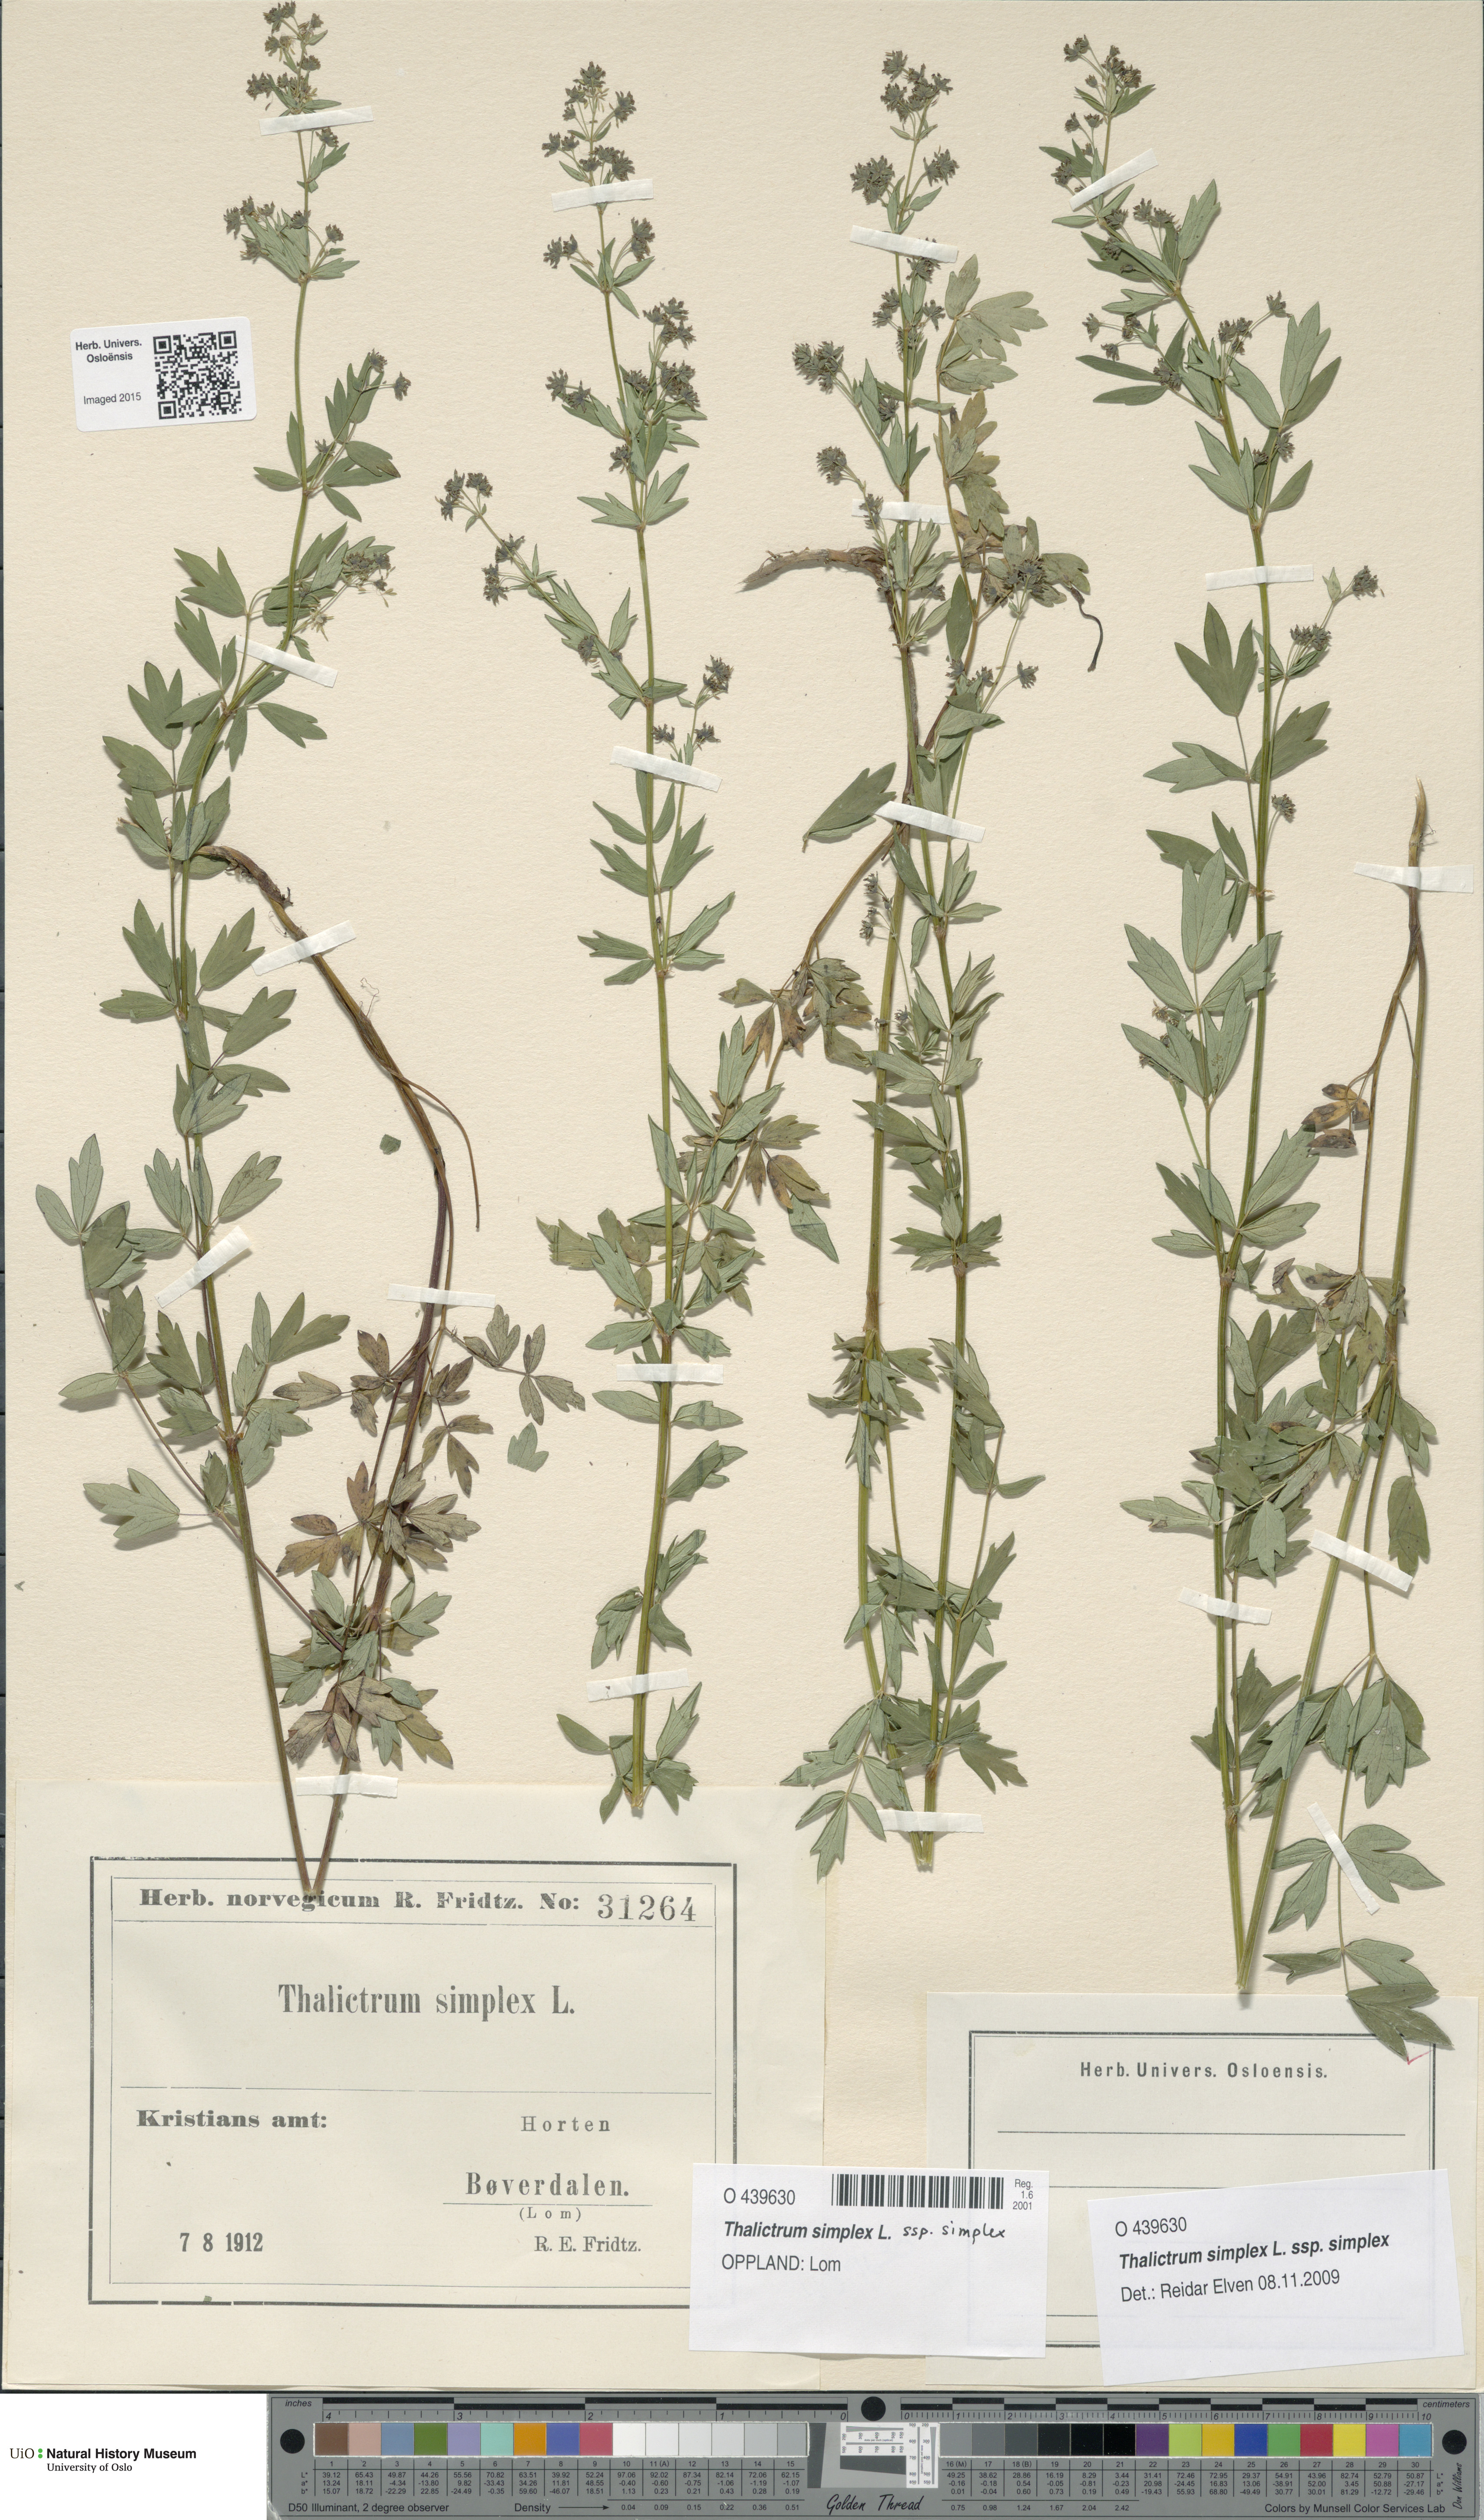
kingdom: Plantae
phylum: Tracheophyta
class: Magnoliopsida
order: Ranunculales
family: Ranunculaceae
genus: Thalictrum
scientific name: Thalictrum simplex
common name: Small meadow-rue
